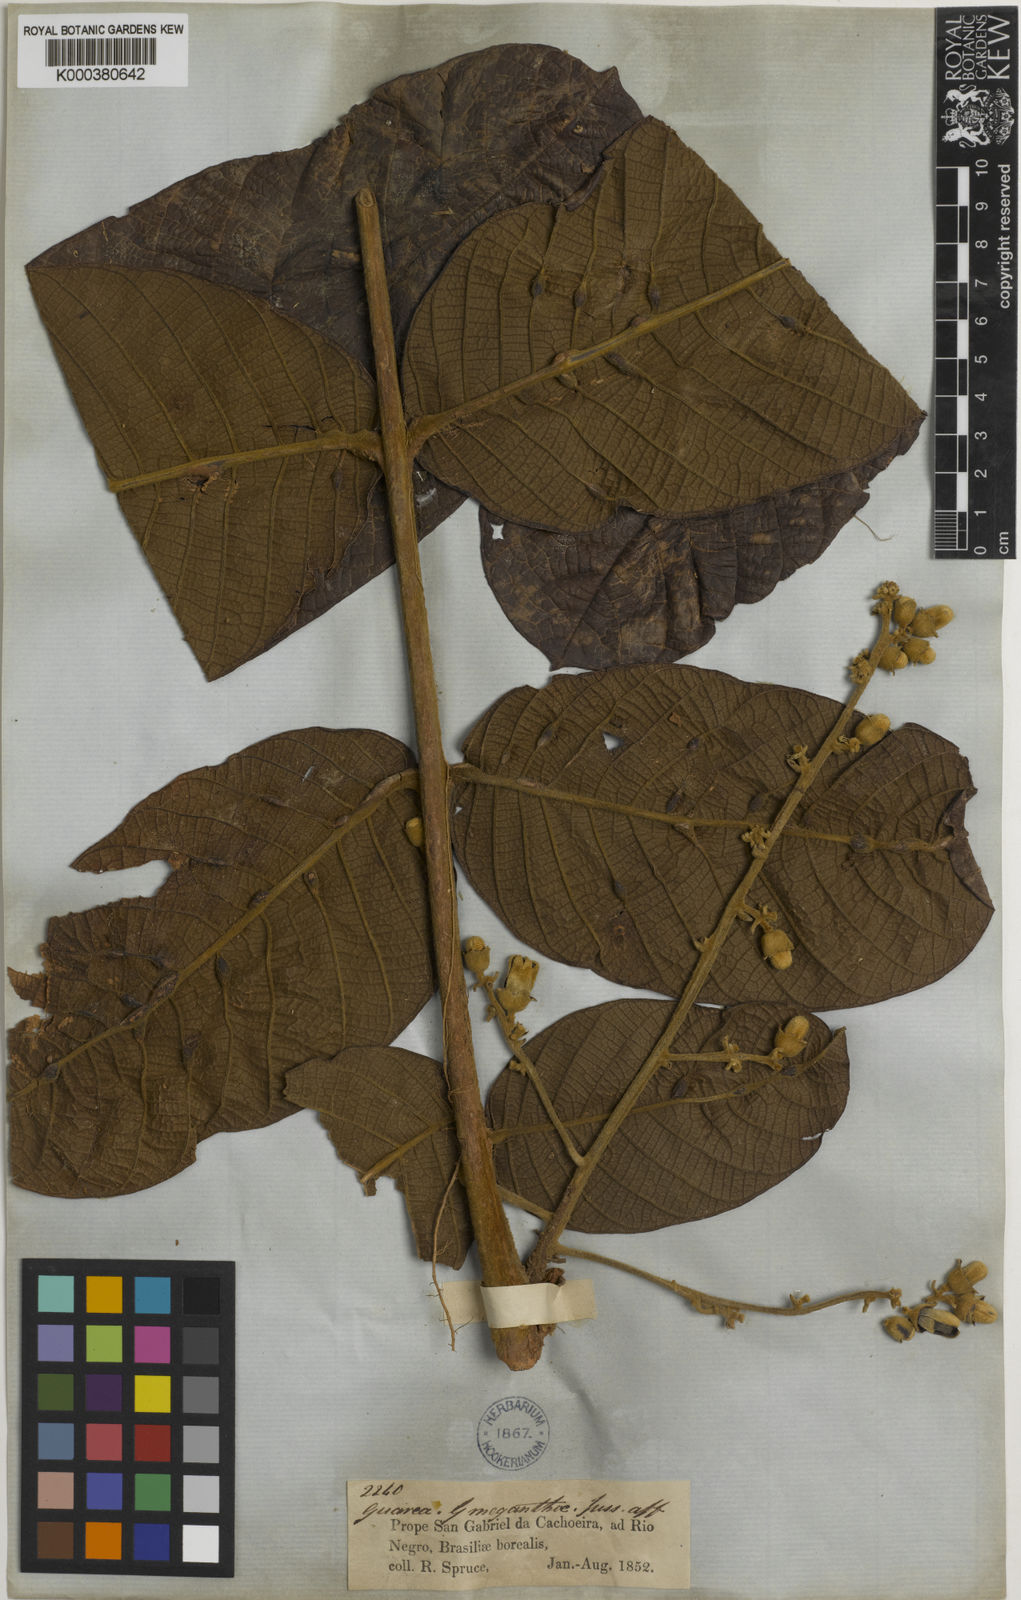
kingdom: Plantae
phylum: Tracheophyta
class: Magnoliopsida
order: Sapindales
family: Meliaceae
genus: Guarea
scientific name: Guarea sprucei
